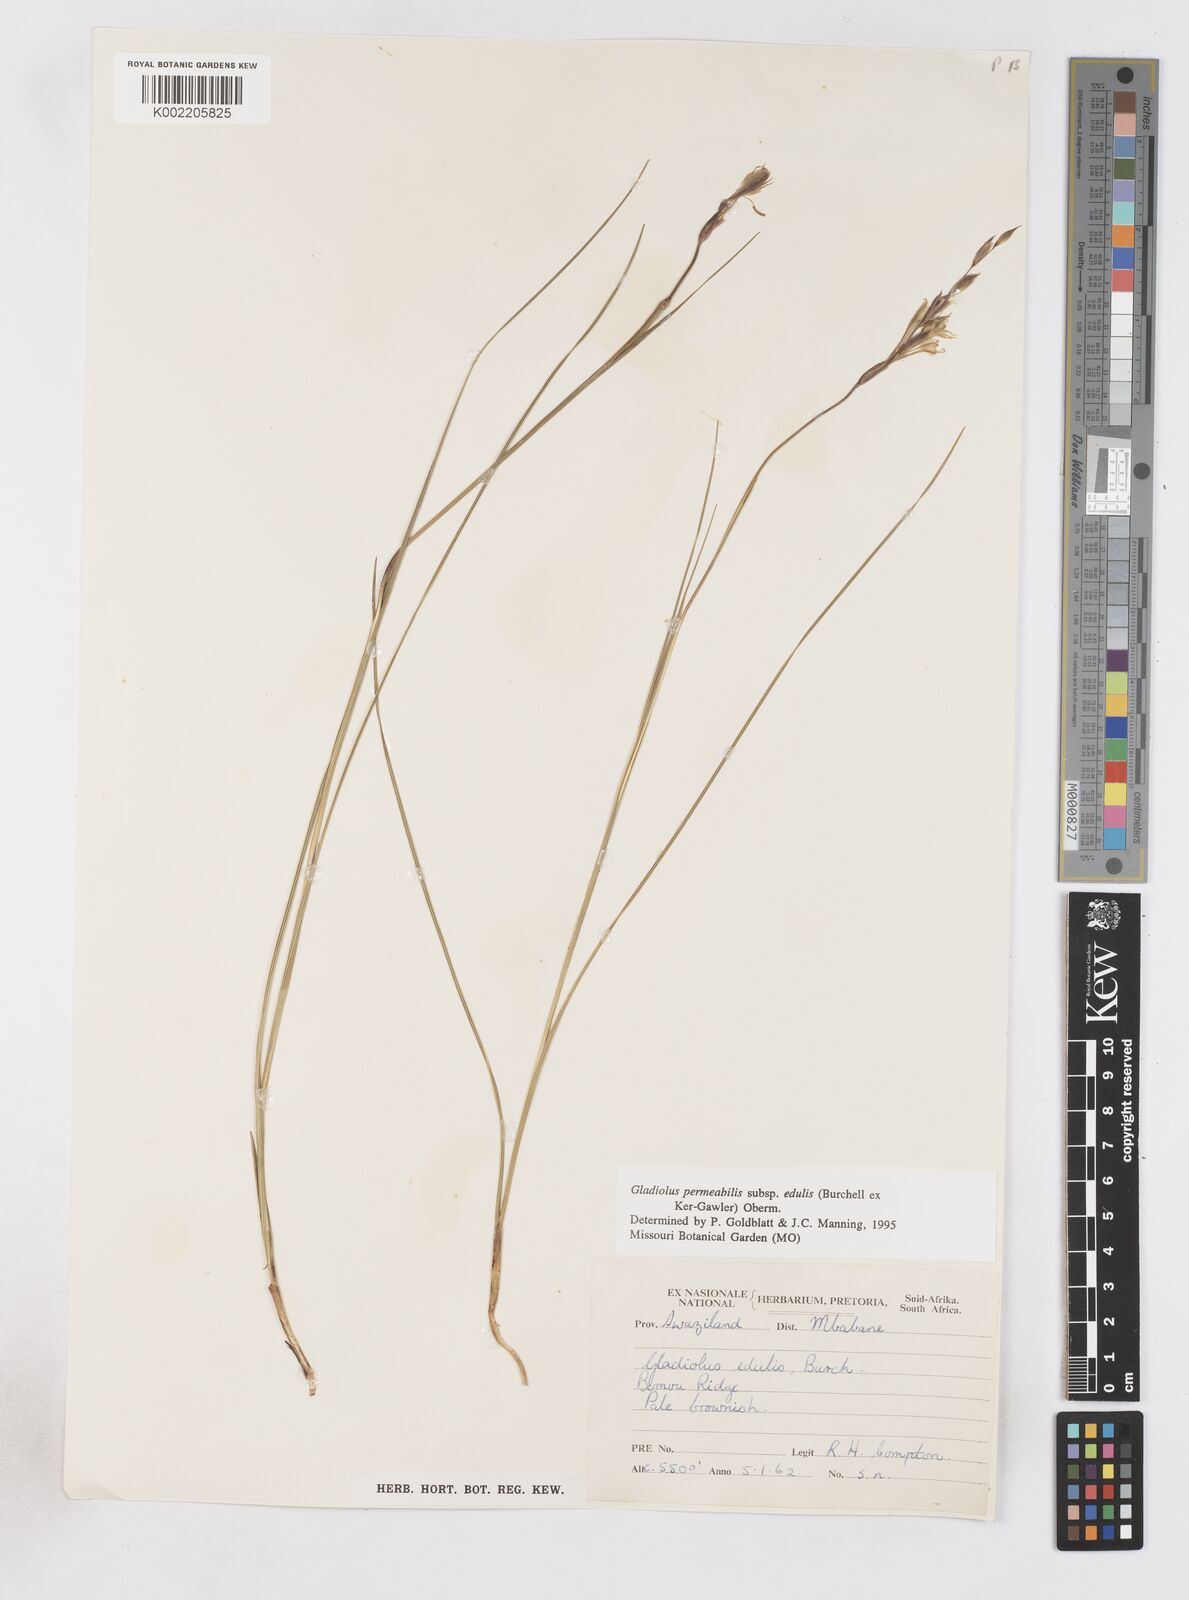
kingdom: Plantae
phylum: Tracheophyta
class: Liliopsida
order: Asparagales
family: Iridaceae
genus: Gladiolus
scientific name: Gladiolus permeabilis
